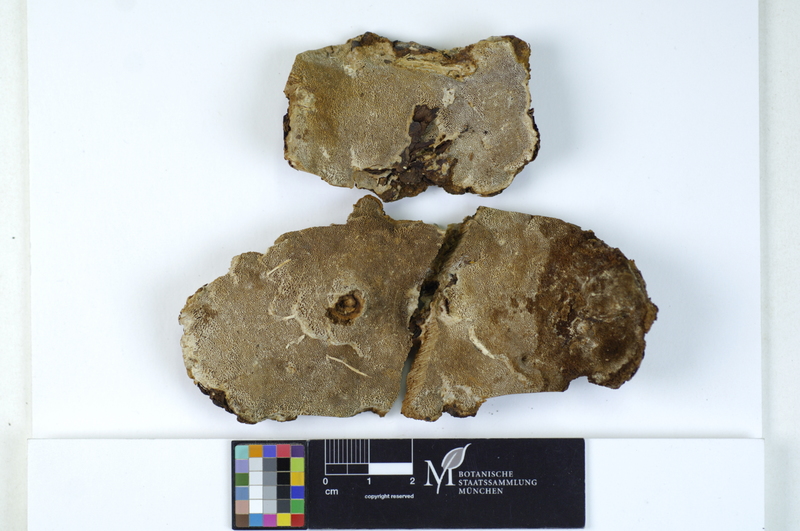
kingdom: Fungi
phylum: Basidiomycota
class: Agaricomycetes
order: Hymenochaetales
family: Hymenochaetaceae
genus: Phellinus
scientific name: Phellinus viticola
